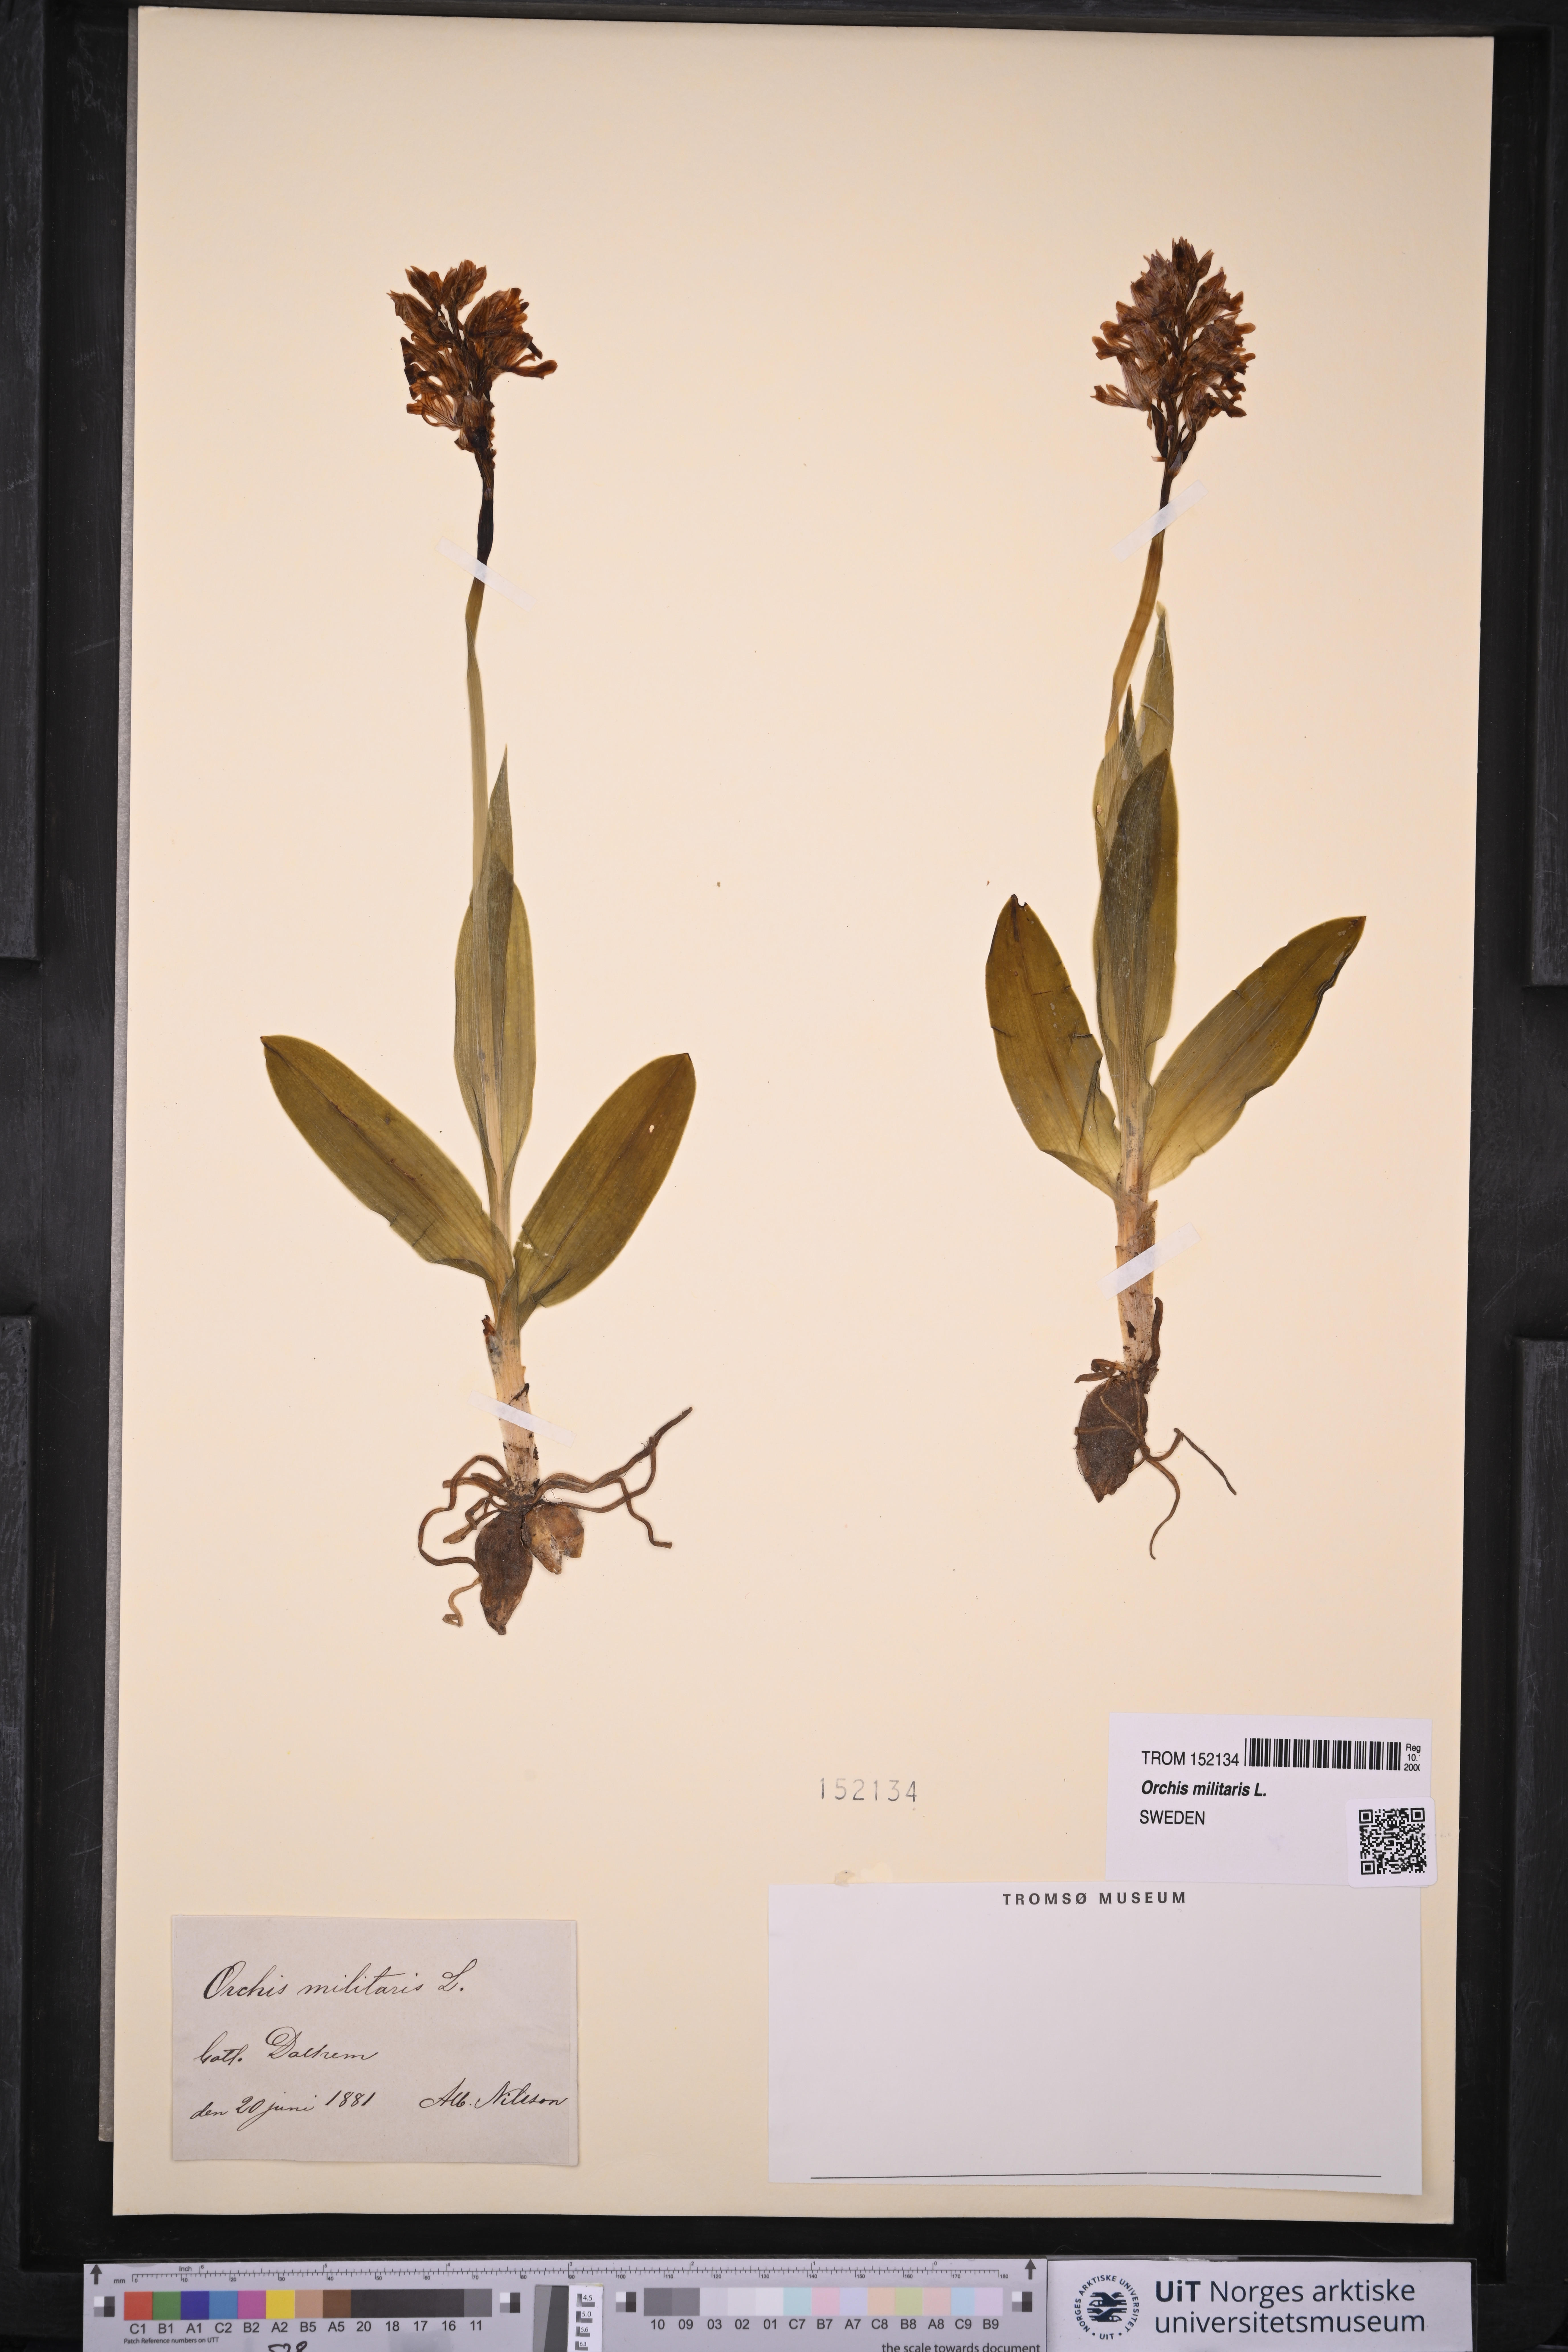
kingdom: Plantae
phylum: Tracheophyta
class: Liliopsida
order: Asparagales
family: Orchidaceae
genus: Orchis
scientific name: Orchis militaris
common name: Military orchid
